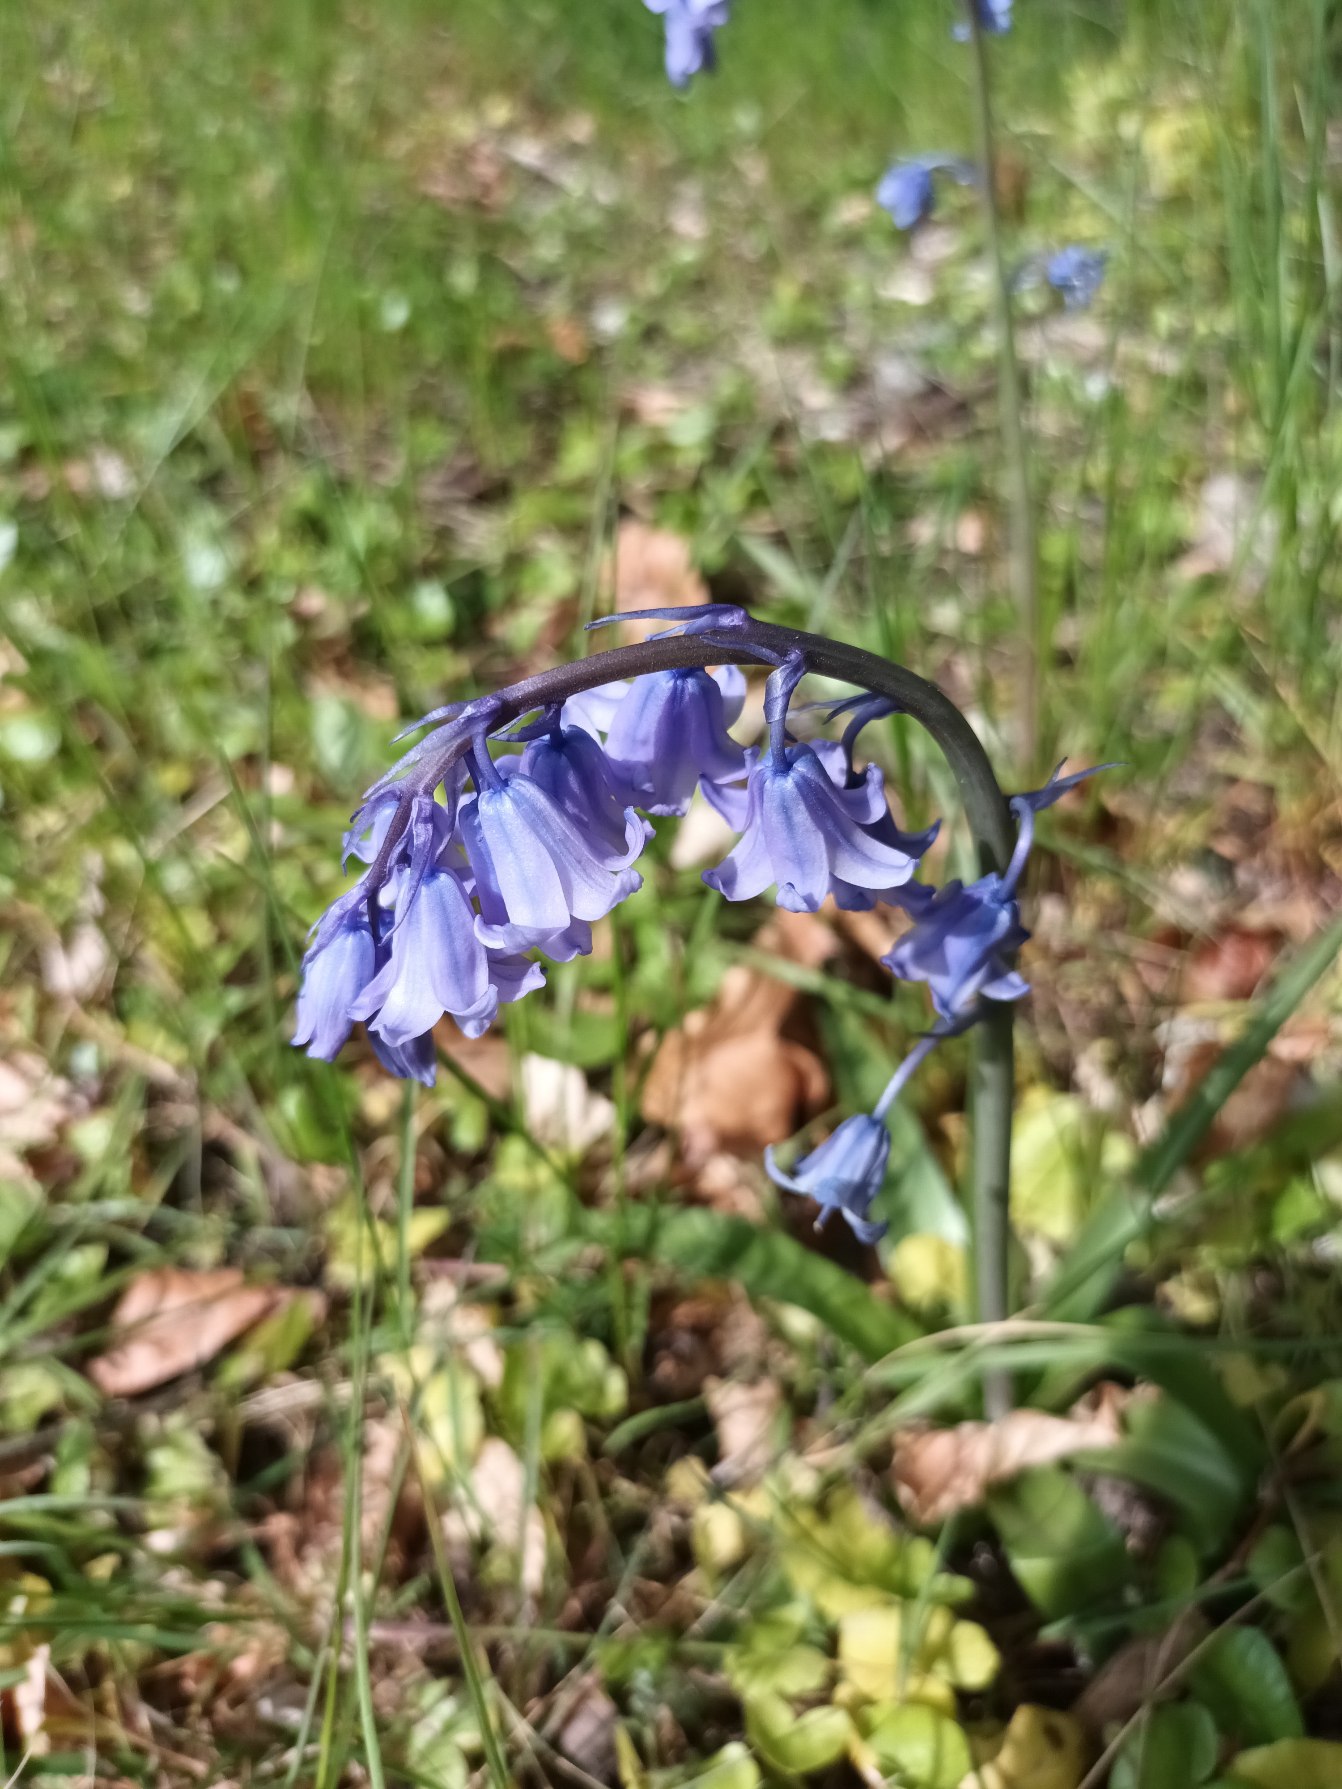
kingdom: Plantae
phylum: Tracheophyta
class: Liliopsida
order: Asparagales
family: Asparagaceae
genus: Hyacinthoides
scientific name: Hyacinthoides massartiana
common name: Hybrid-klokkeskilla
